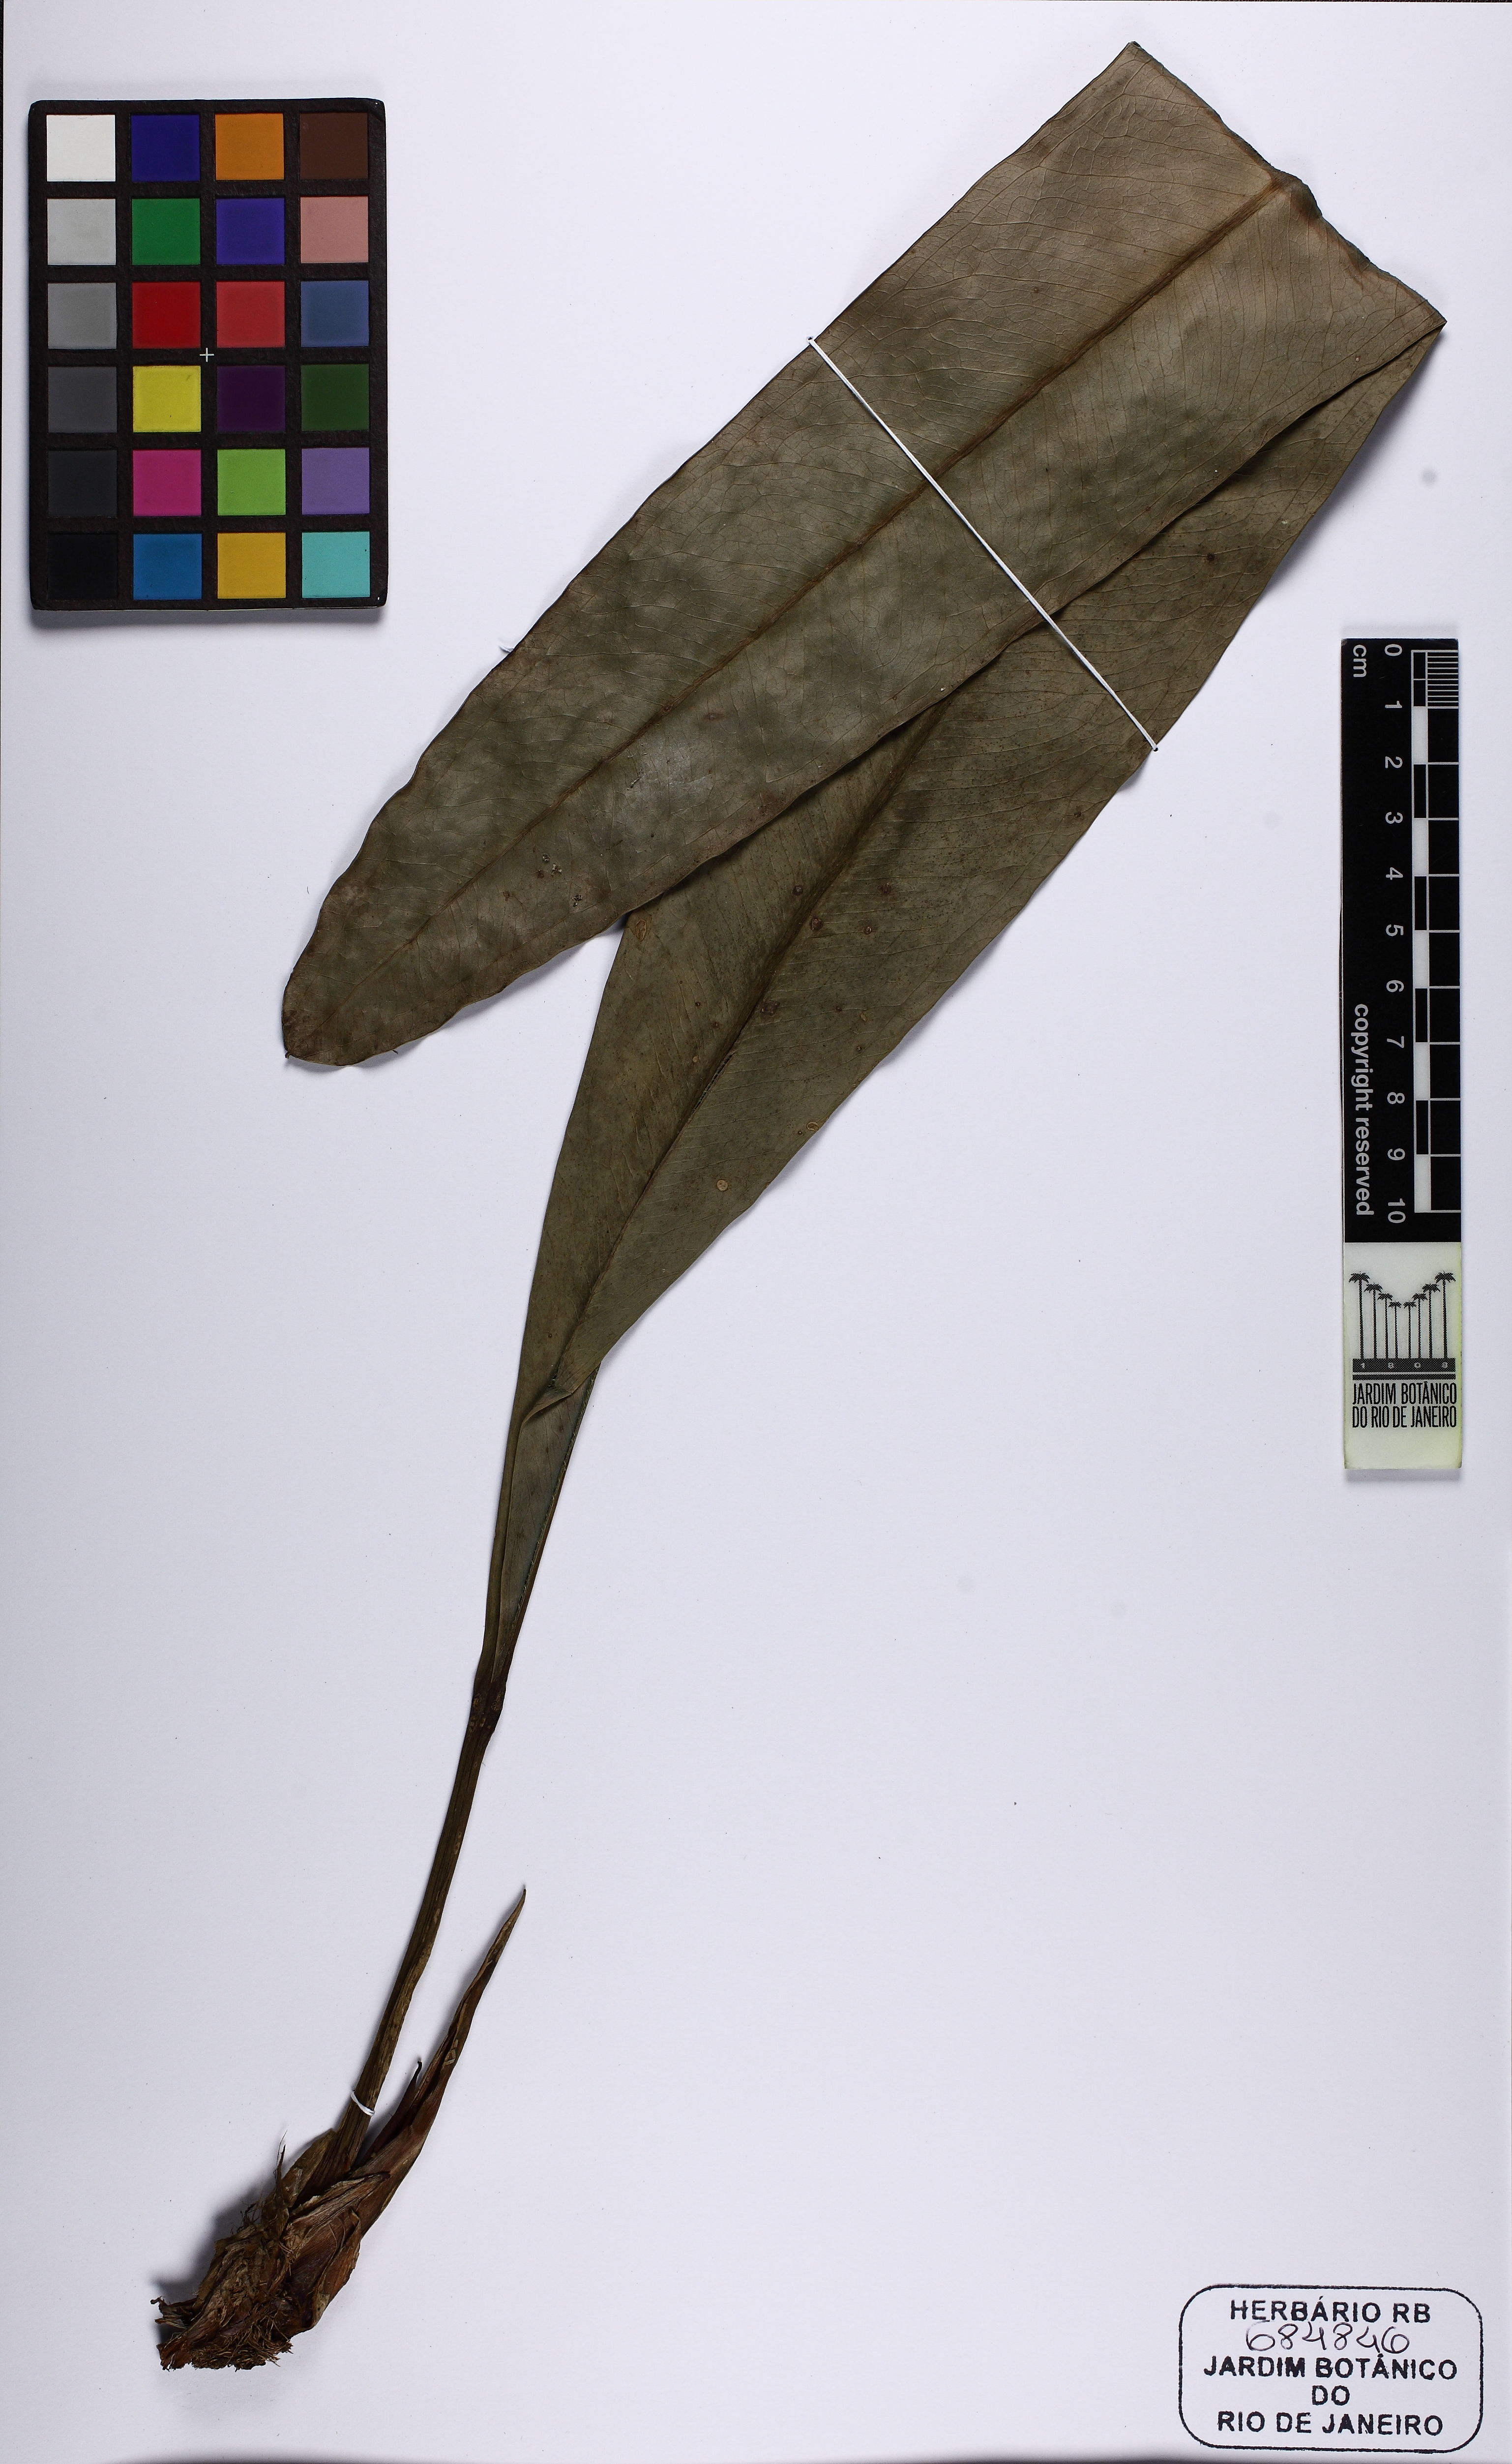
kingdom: Plantae
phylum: Tracheophyta
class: Liliopsida
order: Alismatales
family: Araceae
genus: Anthurium
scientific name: Anthurium minarum
